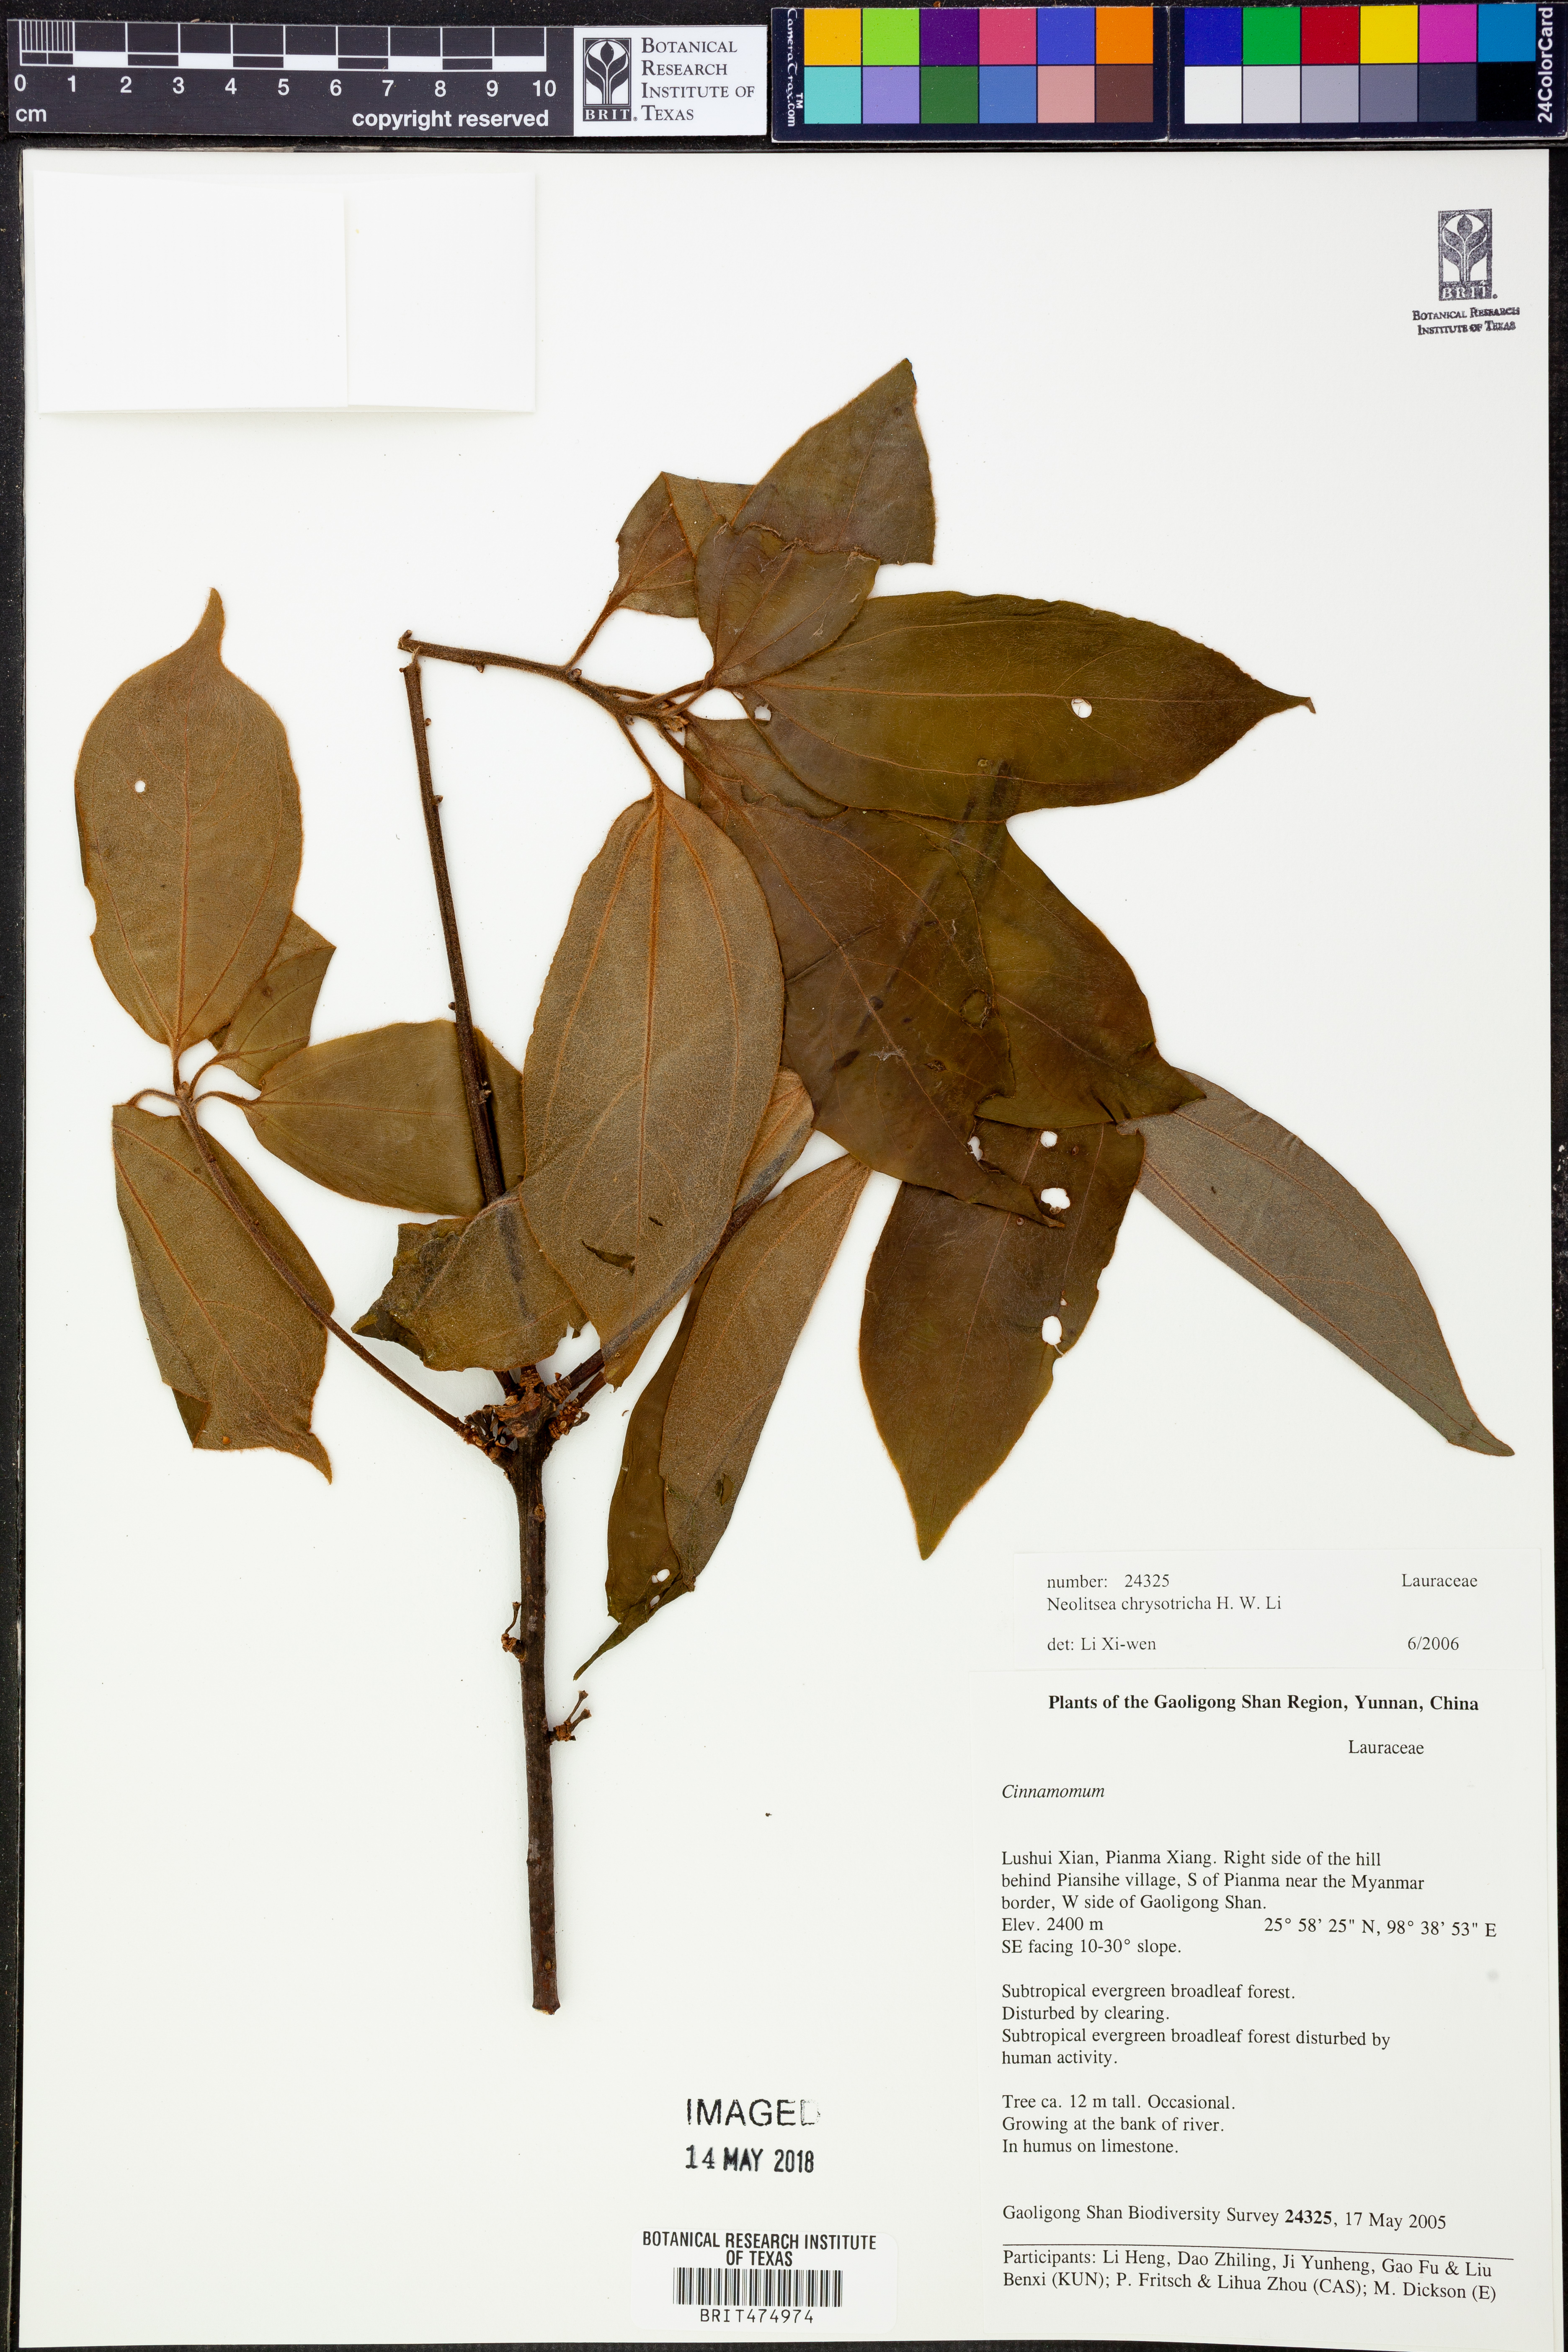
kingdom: Plantae
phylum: Tracheophyta
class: Magnoliopsida
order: Laurales
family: Lauraceae
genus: Neolitsea
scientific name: Neolitsea chrysotricha
